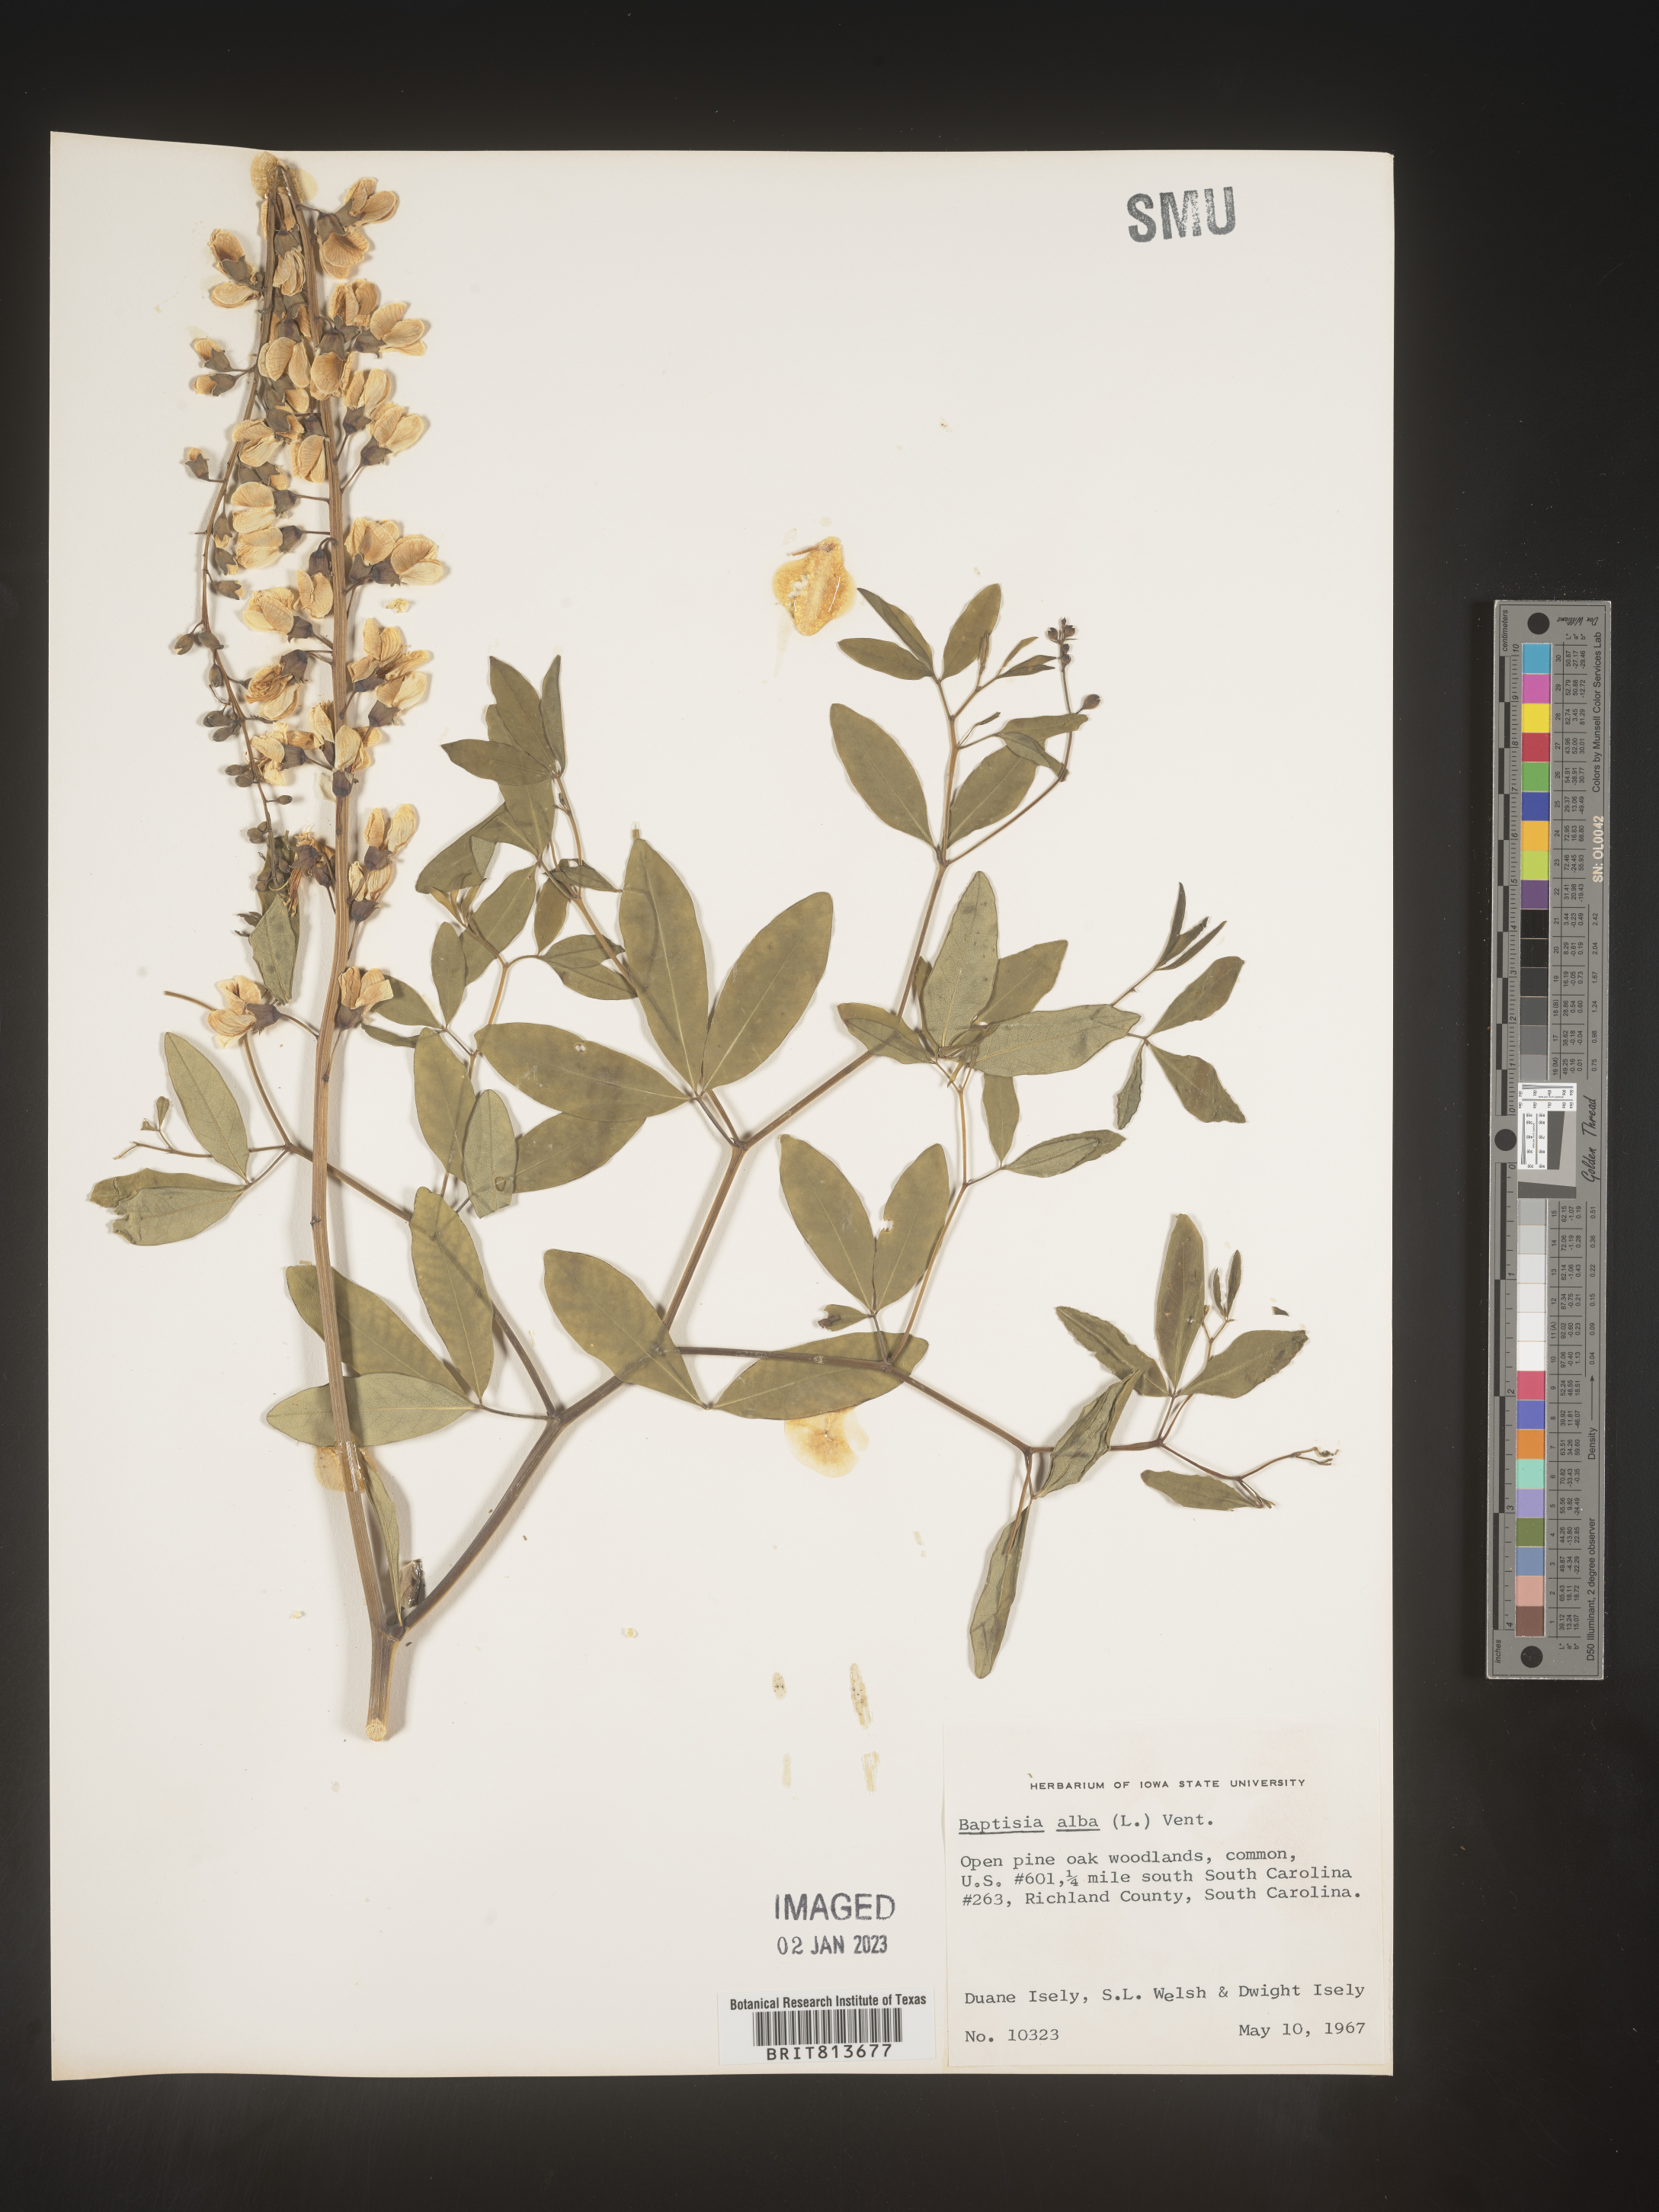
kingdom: Plantae
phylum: Tracheophyta
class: Magnoliopsida
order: Fabales
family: Fabaceae
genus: Baptisia
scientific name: Baptisia alba
